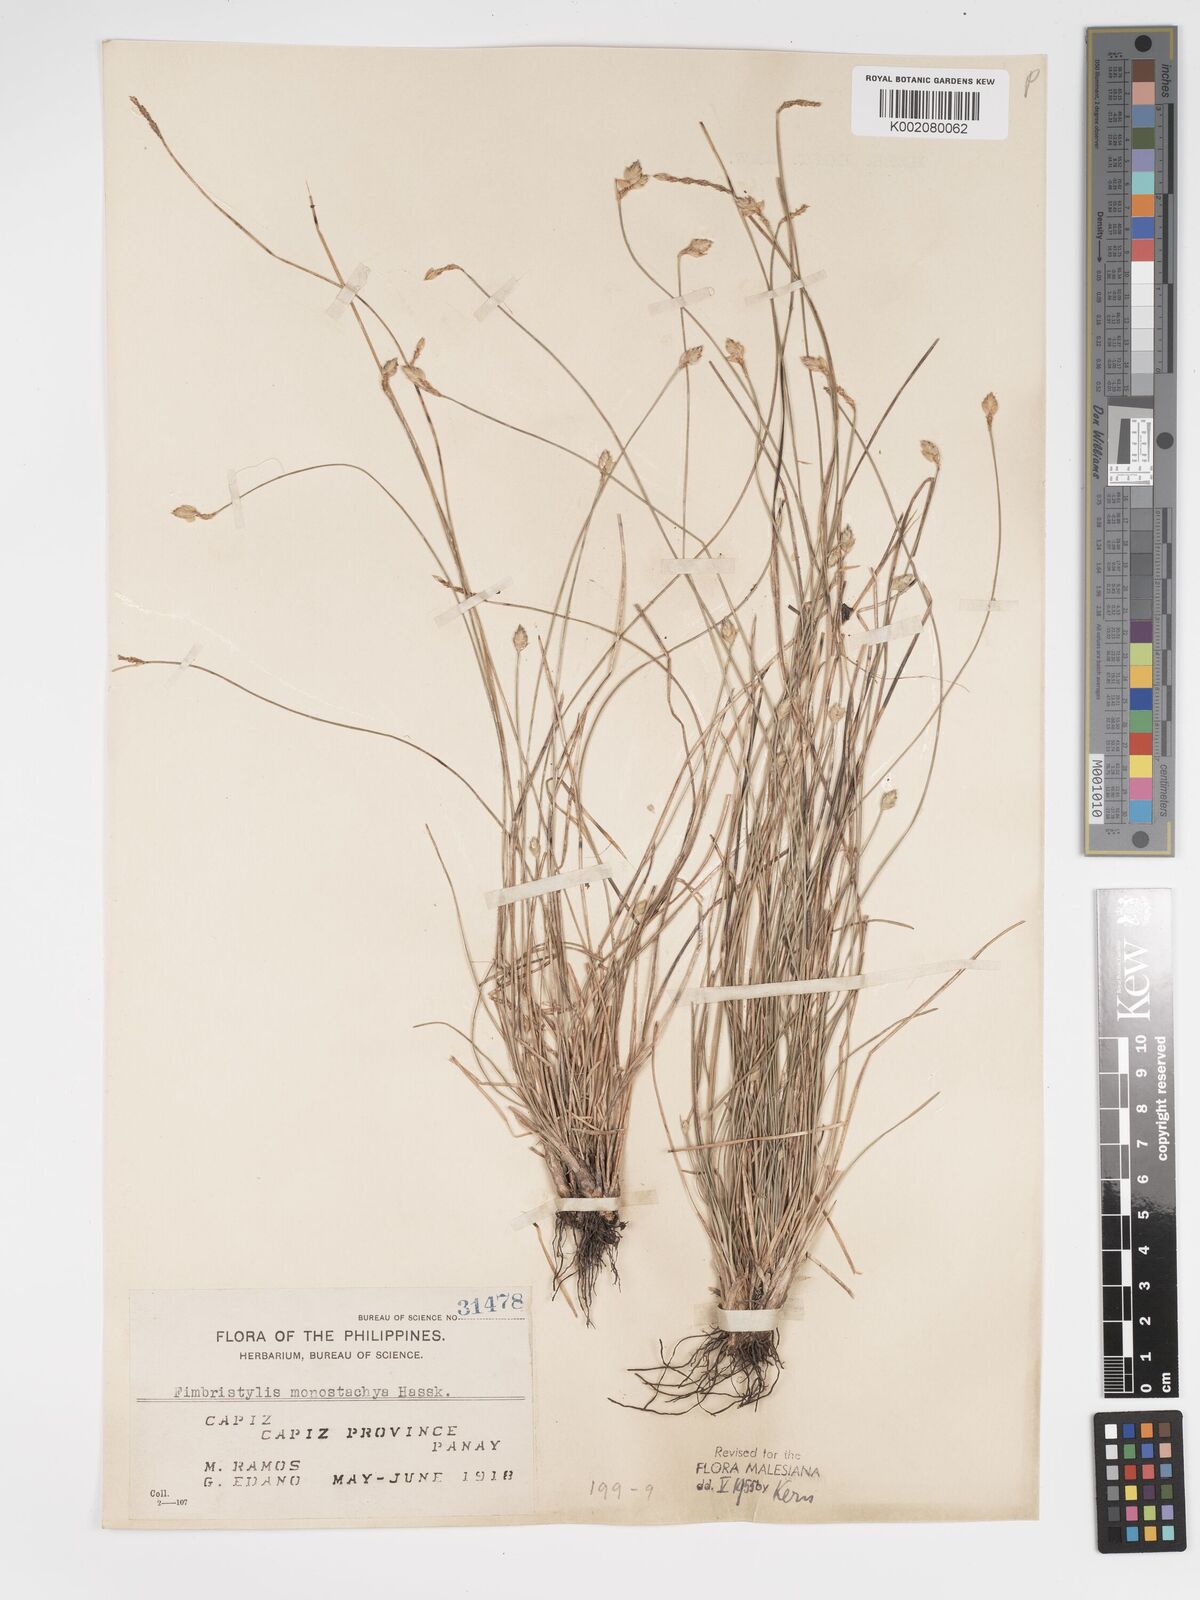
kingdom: Plantae
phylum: Tracheophyta
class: Liliopsida
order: Poales
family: Cyperaceae
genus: Abildgaardia
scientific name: Abildgaardia ovata
